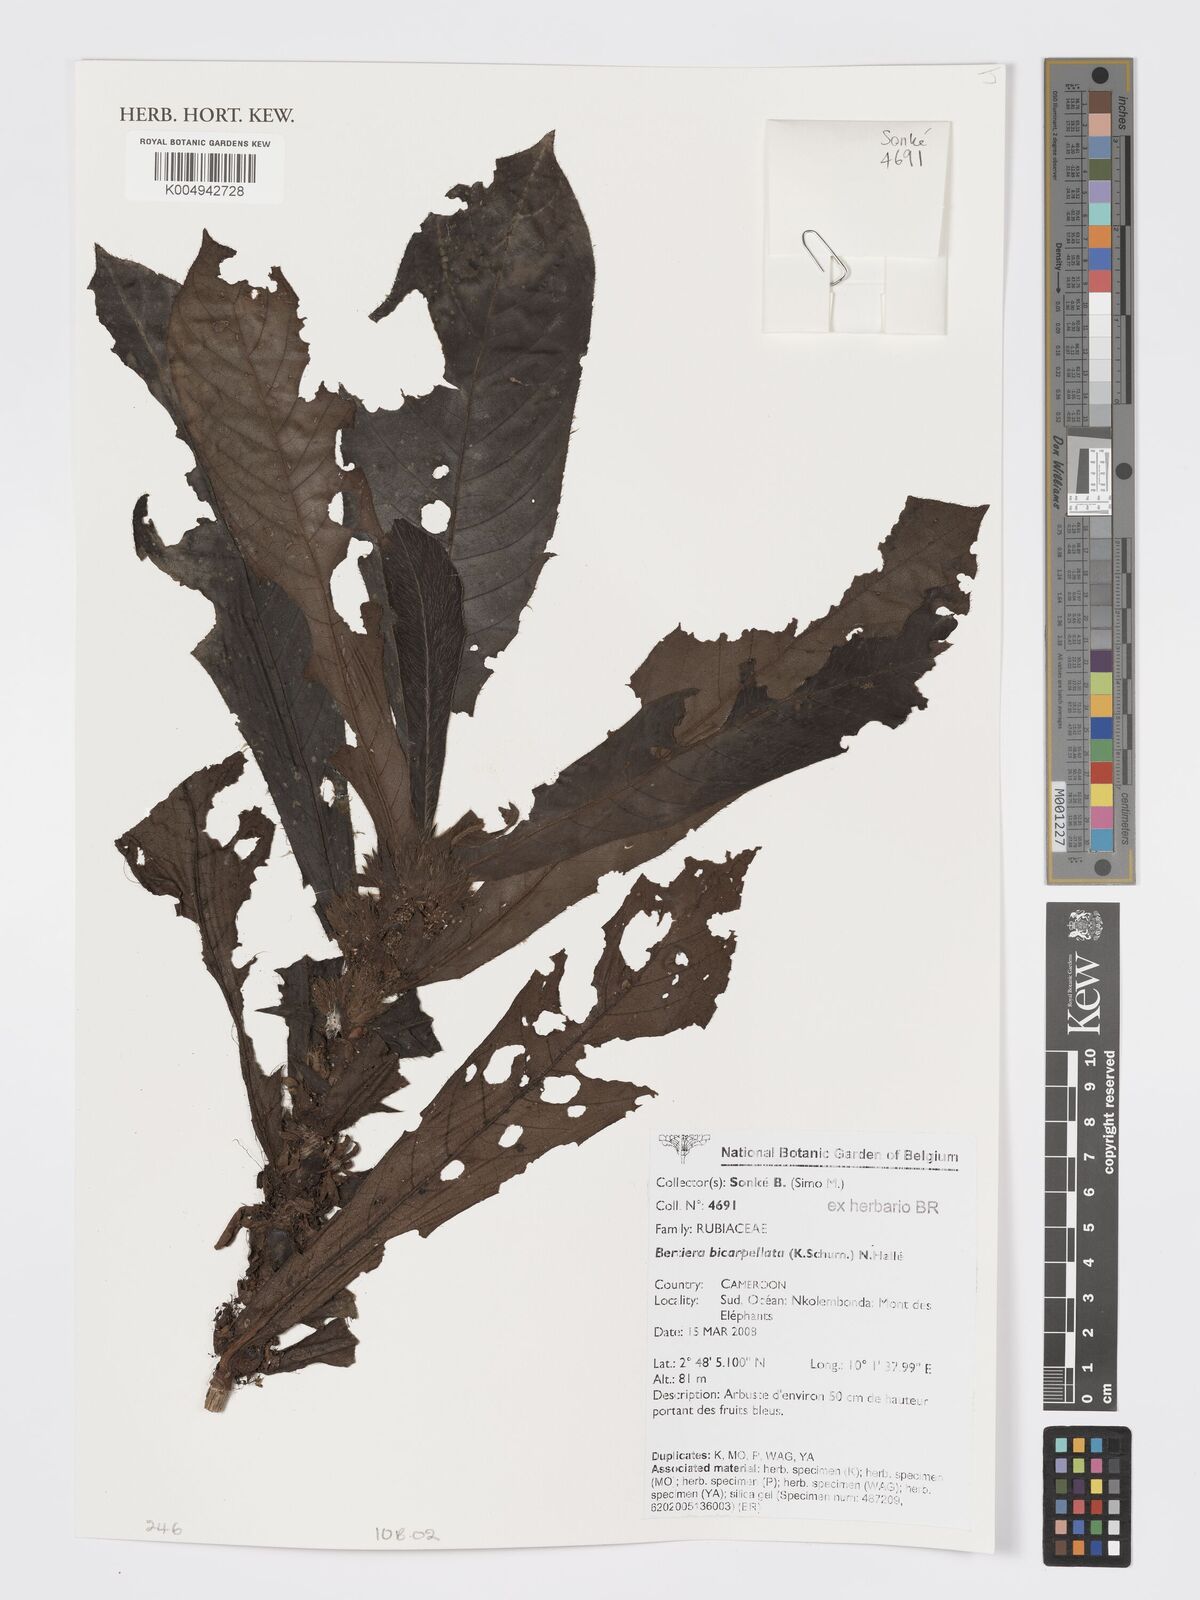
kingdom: Plantae
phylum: Tracheophyta
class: Magnoliopsida
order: Gentianales
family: Rubiaceae
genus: Bertiera
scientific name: Bertiera bicarpellata
